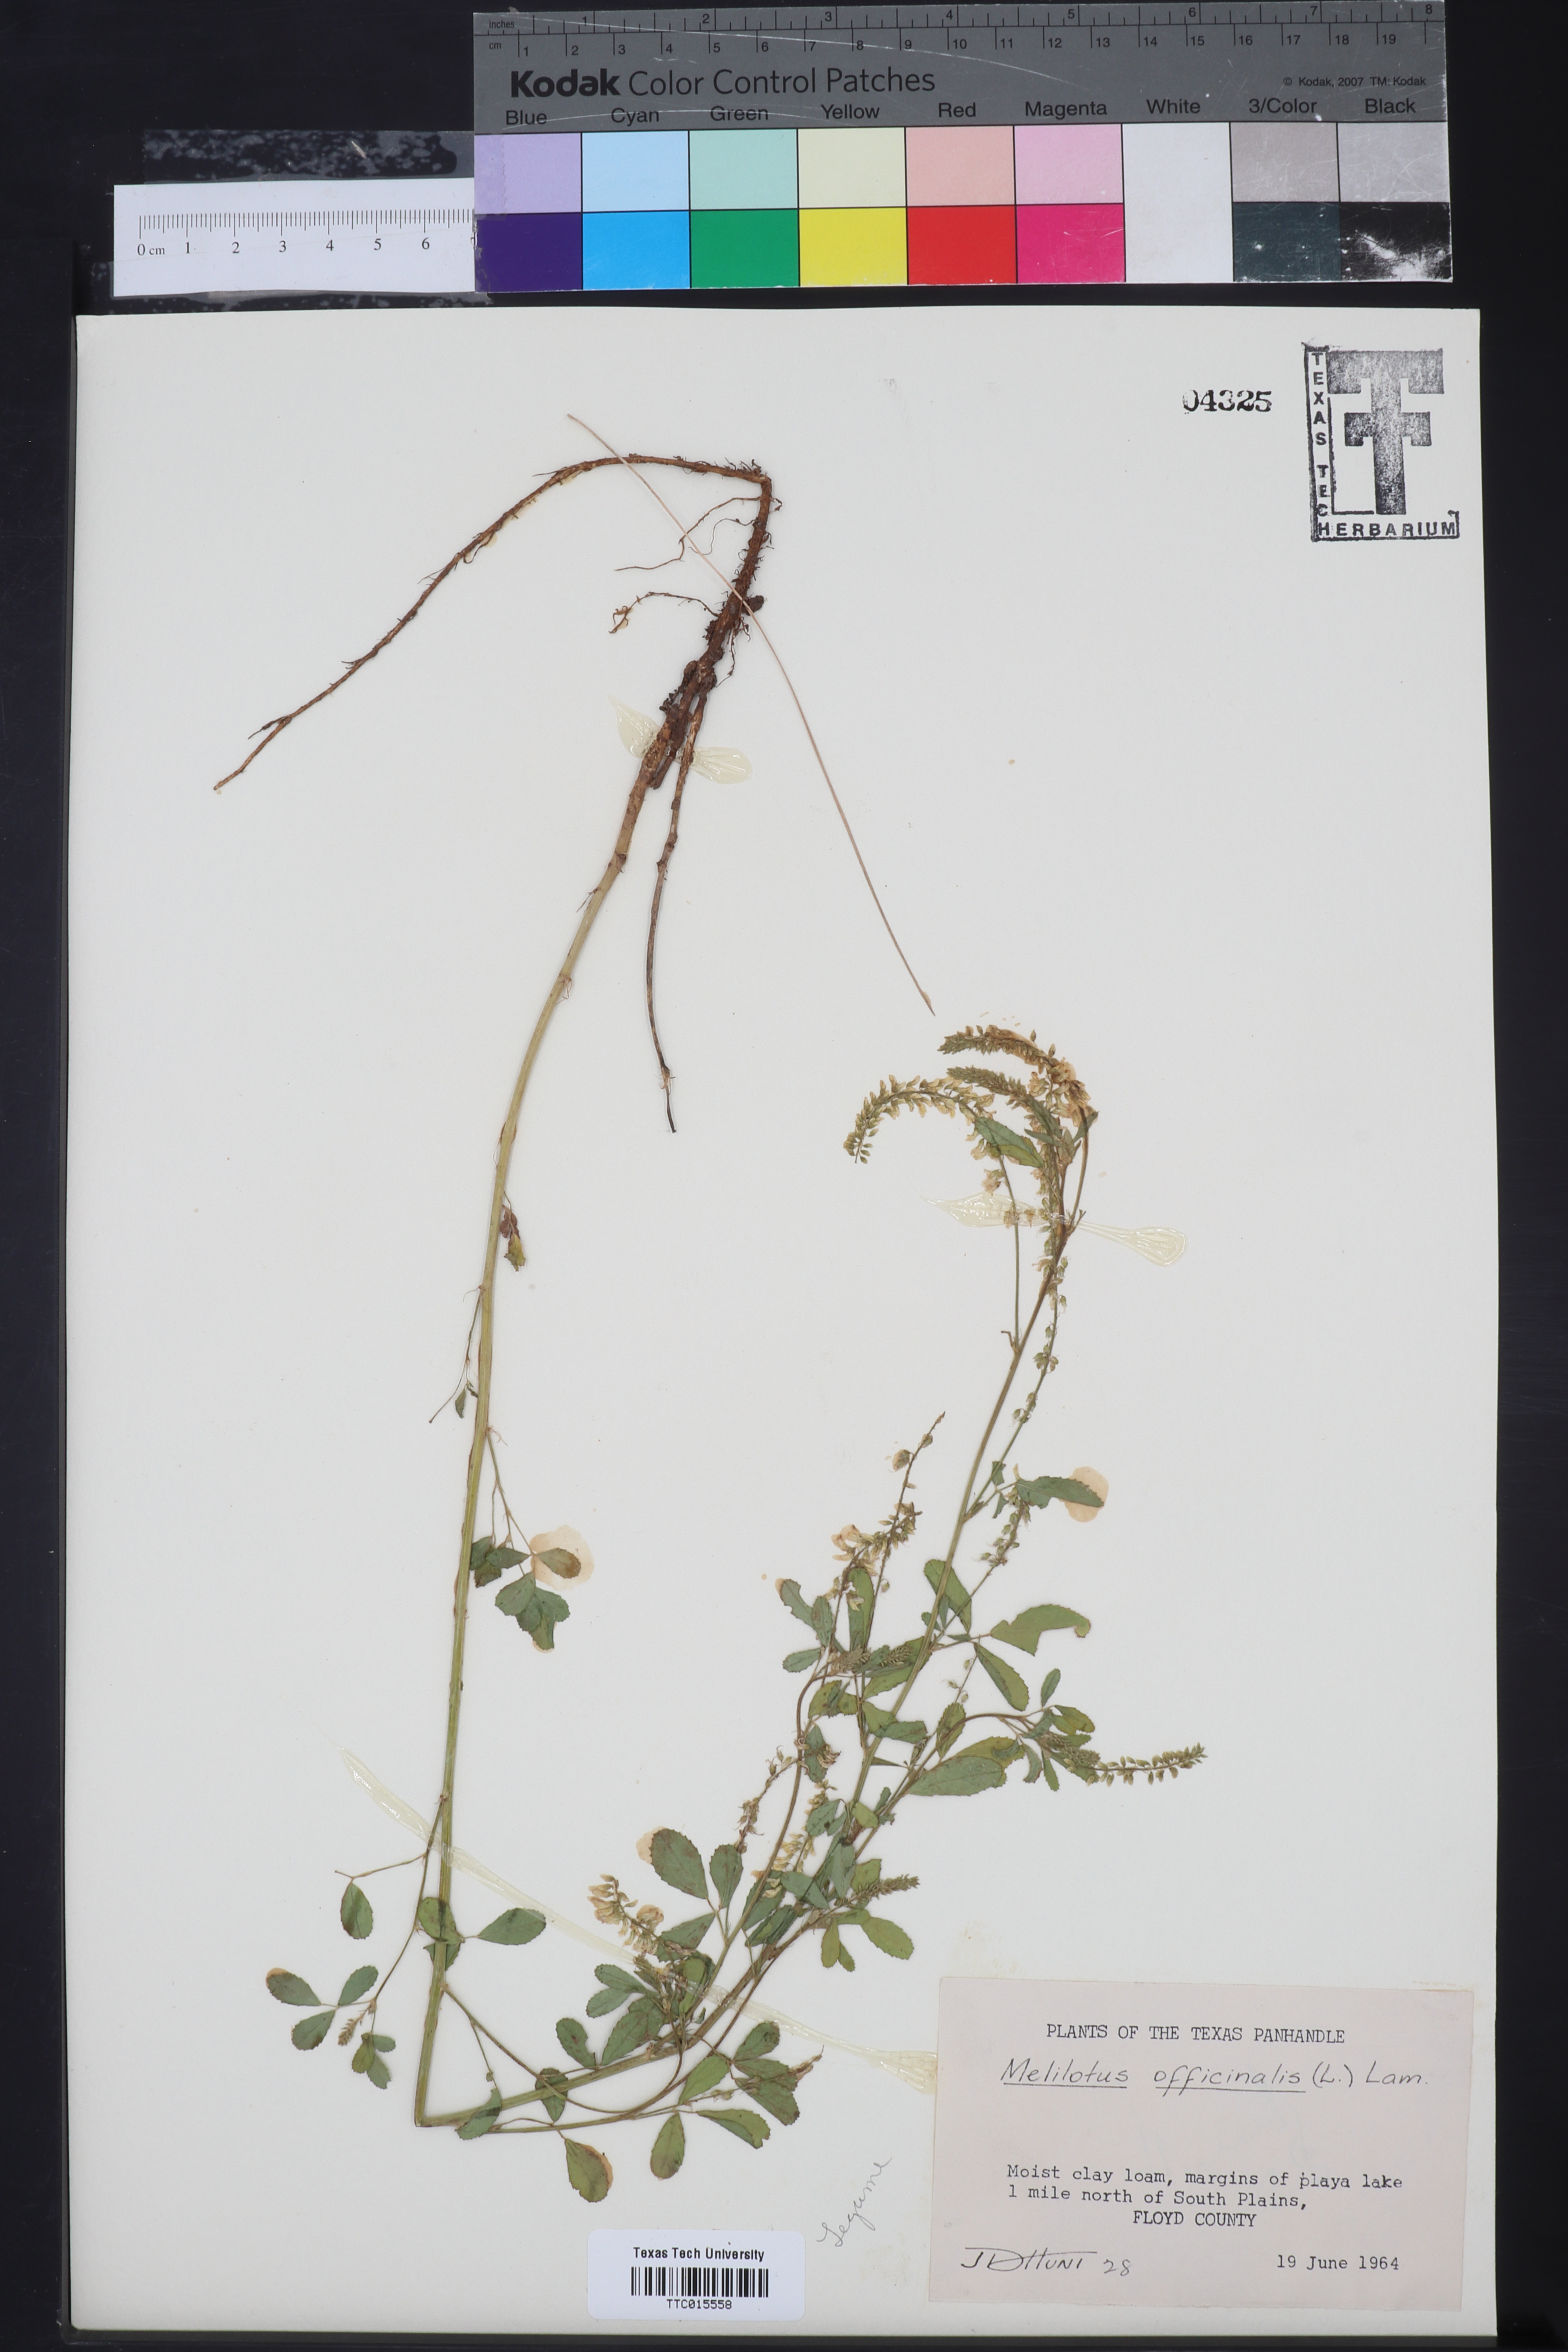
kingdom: Plantae
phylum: Tracheophyta
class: Magnoliopsida
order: Fabales
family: Fabaceae
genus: Melilotus
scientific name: Melilotus officinalis
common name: Sweetclover
